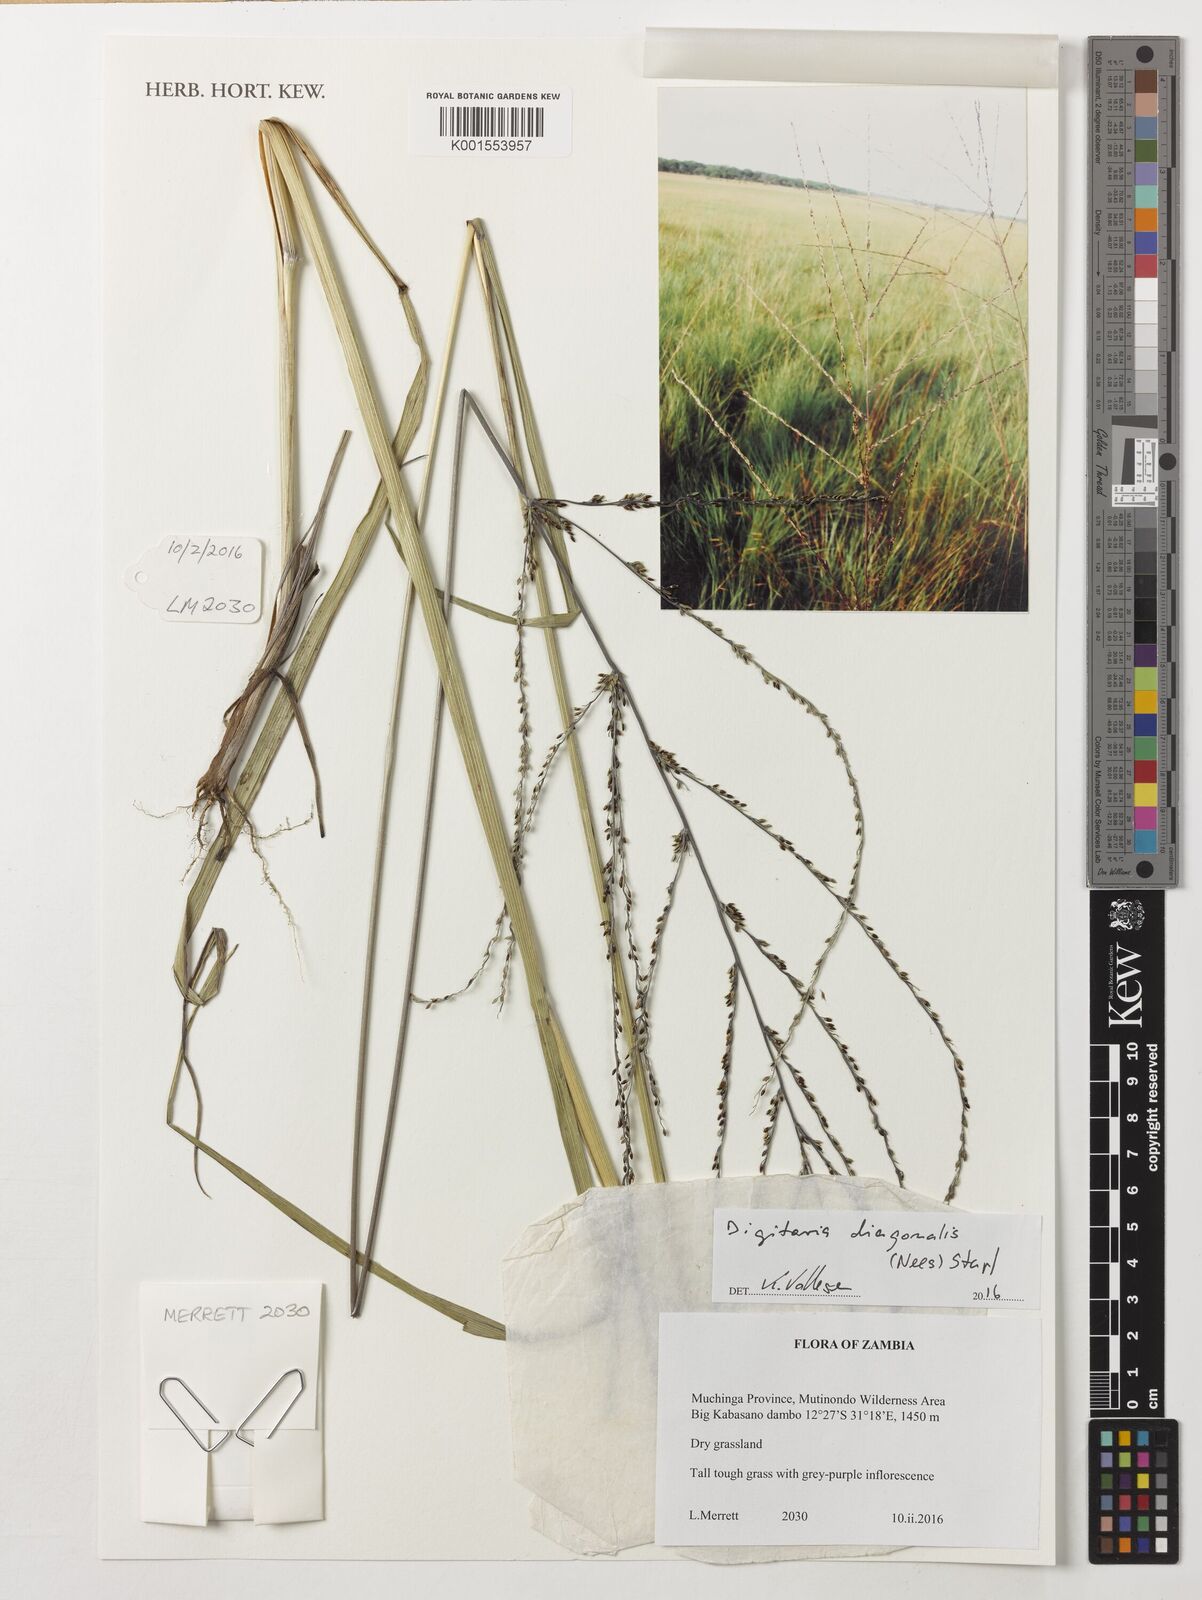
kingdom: Plantae
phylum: Tracheophyta
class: Liliopsida
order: Poales
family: Poaceae
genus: Digitaria
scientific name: Digitaria diagonalis
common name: Brown-seed finger grass
